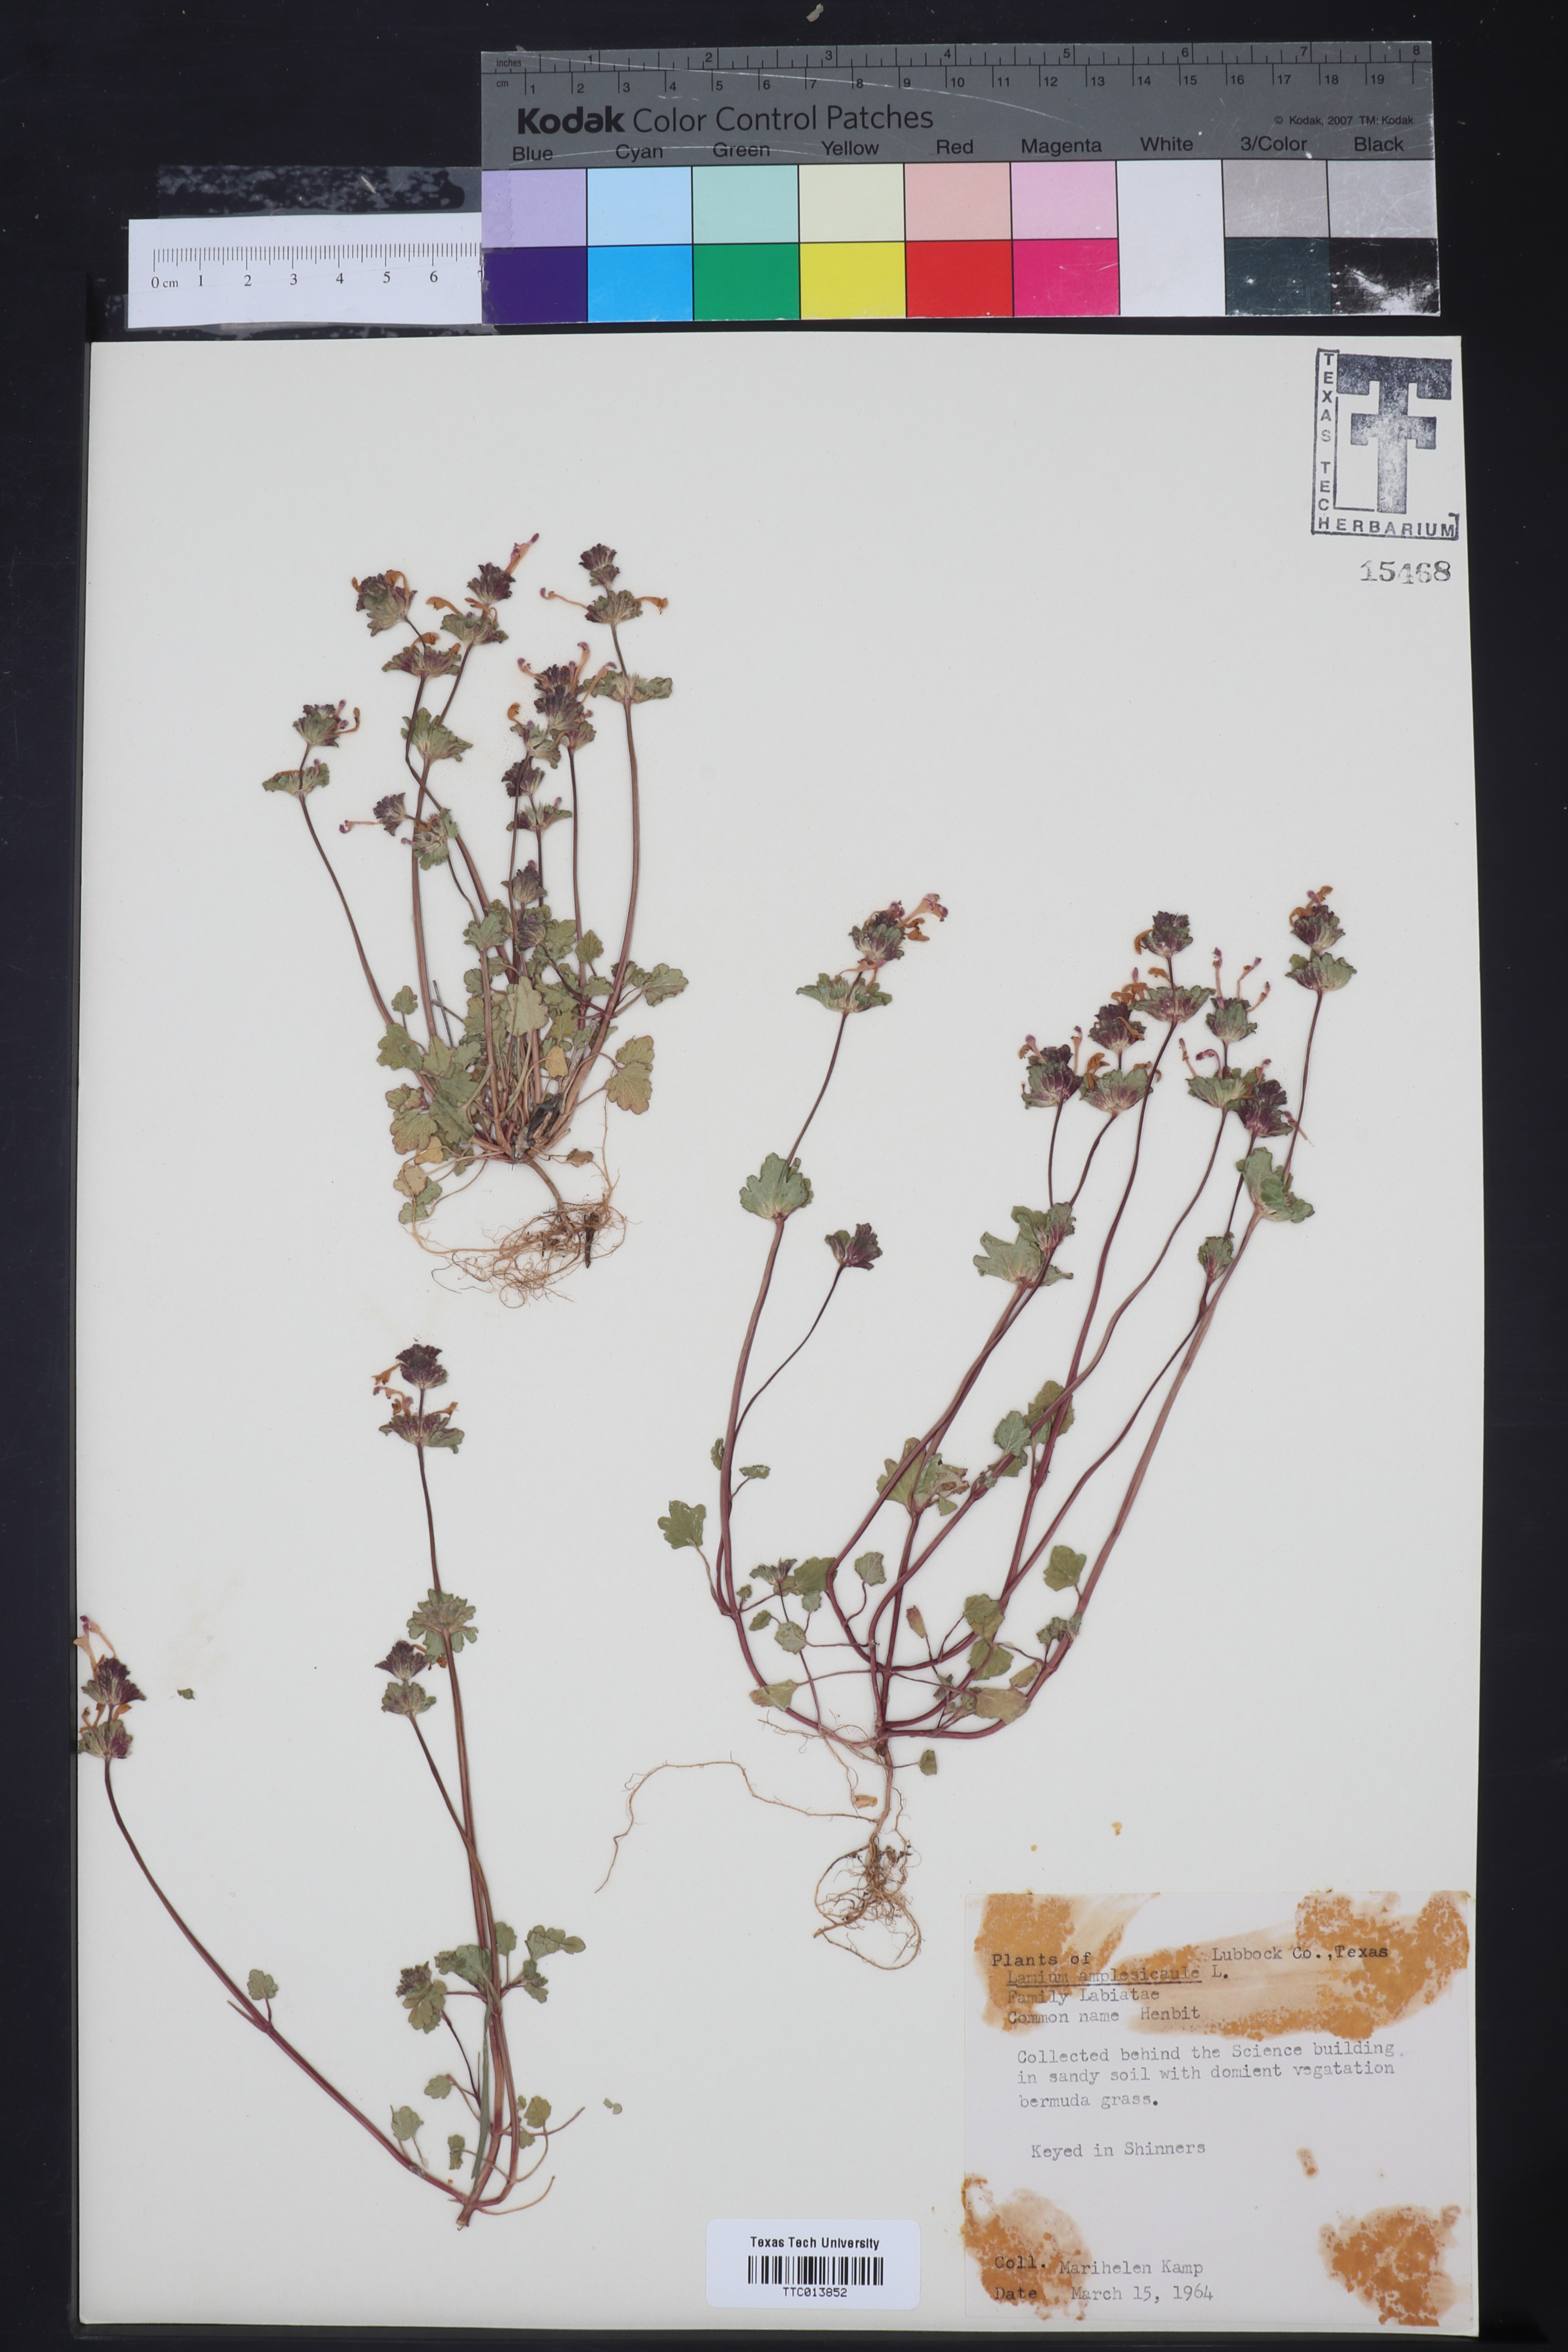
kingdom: Plantae
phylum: Tracheophyta
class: Magnoliopsida
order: Lamiales
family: Lamiaceae
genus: Lamium
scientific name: Lamium amplexicaule
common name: Henbit dead-nettle
